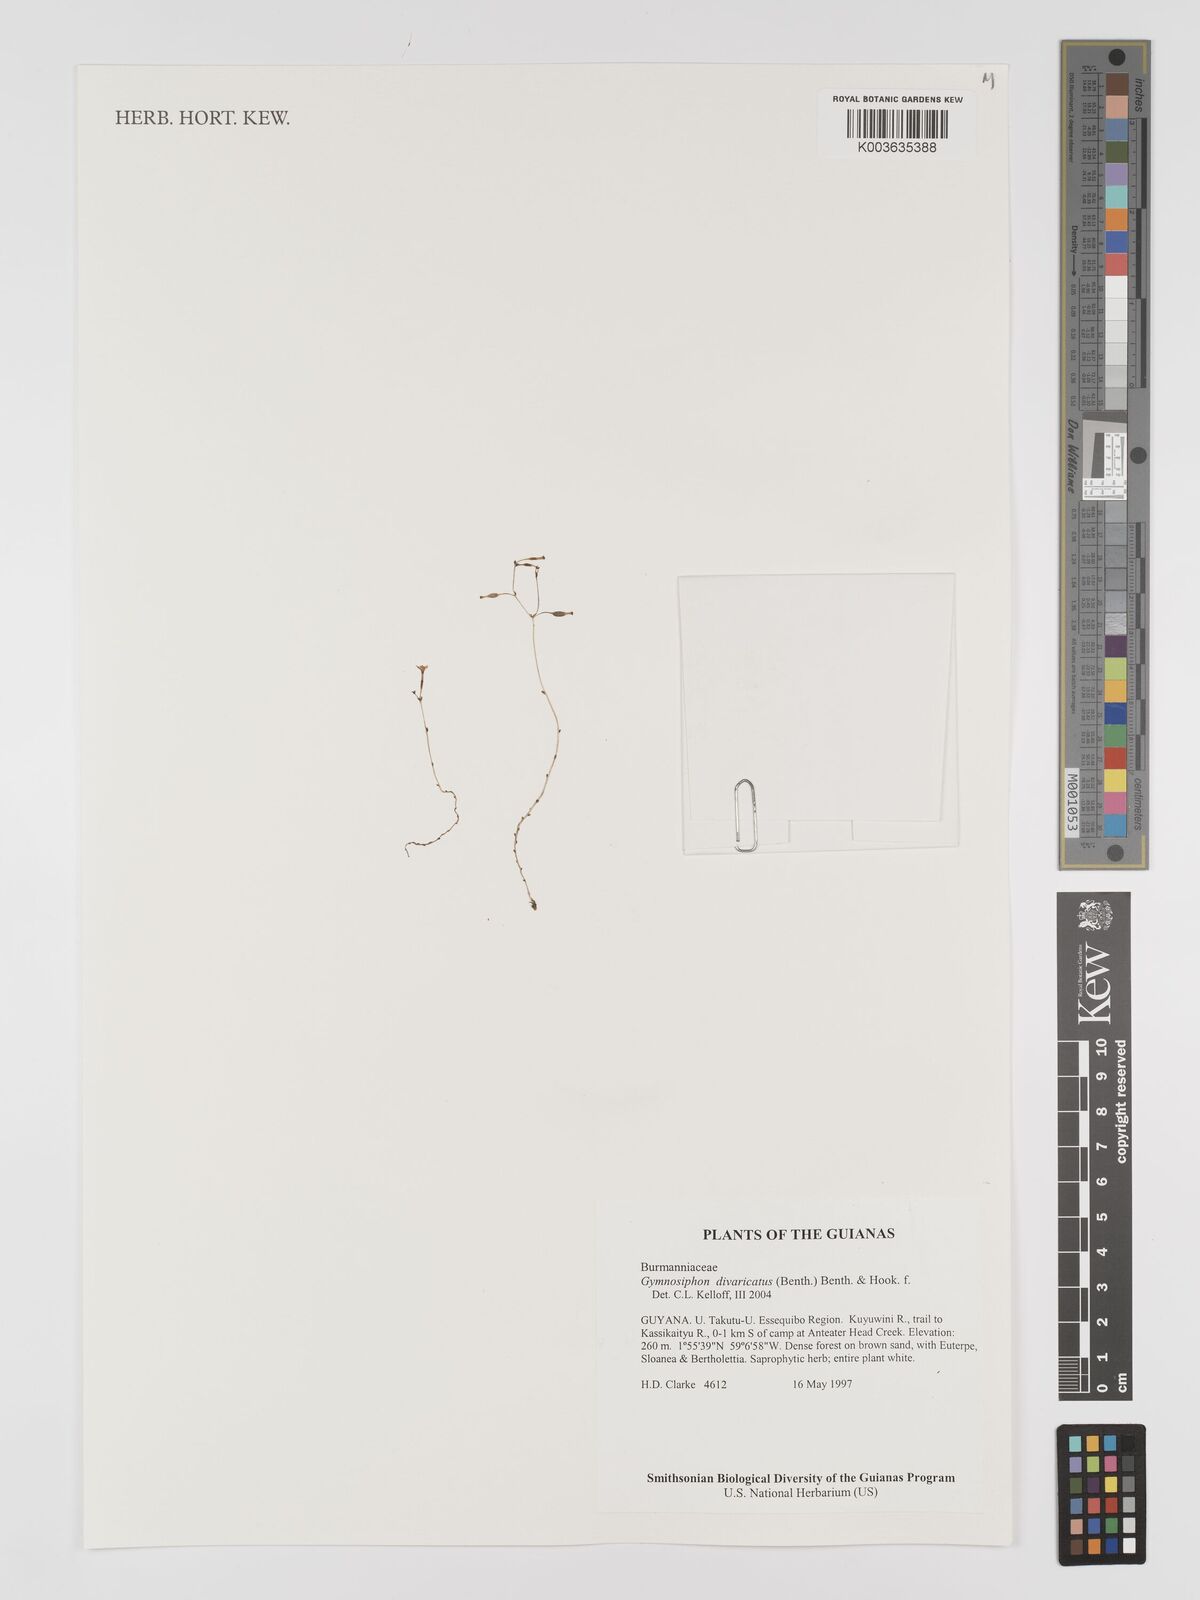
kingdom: Plantae
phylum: Tracheophyta
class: Liliopsida
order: Dioscoreales
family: Burmanniaceae
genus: Gymnosiphon
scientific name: Gymnosiphon divaricatus
